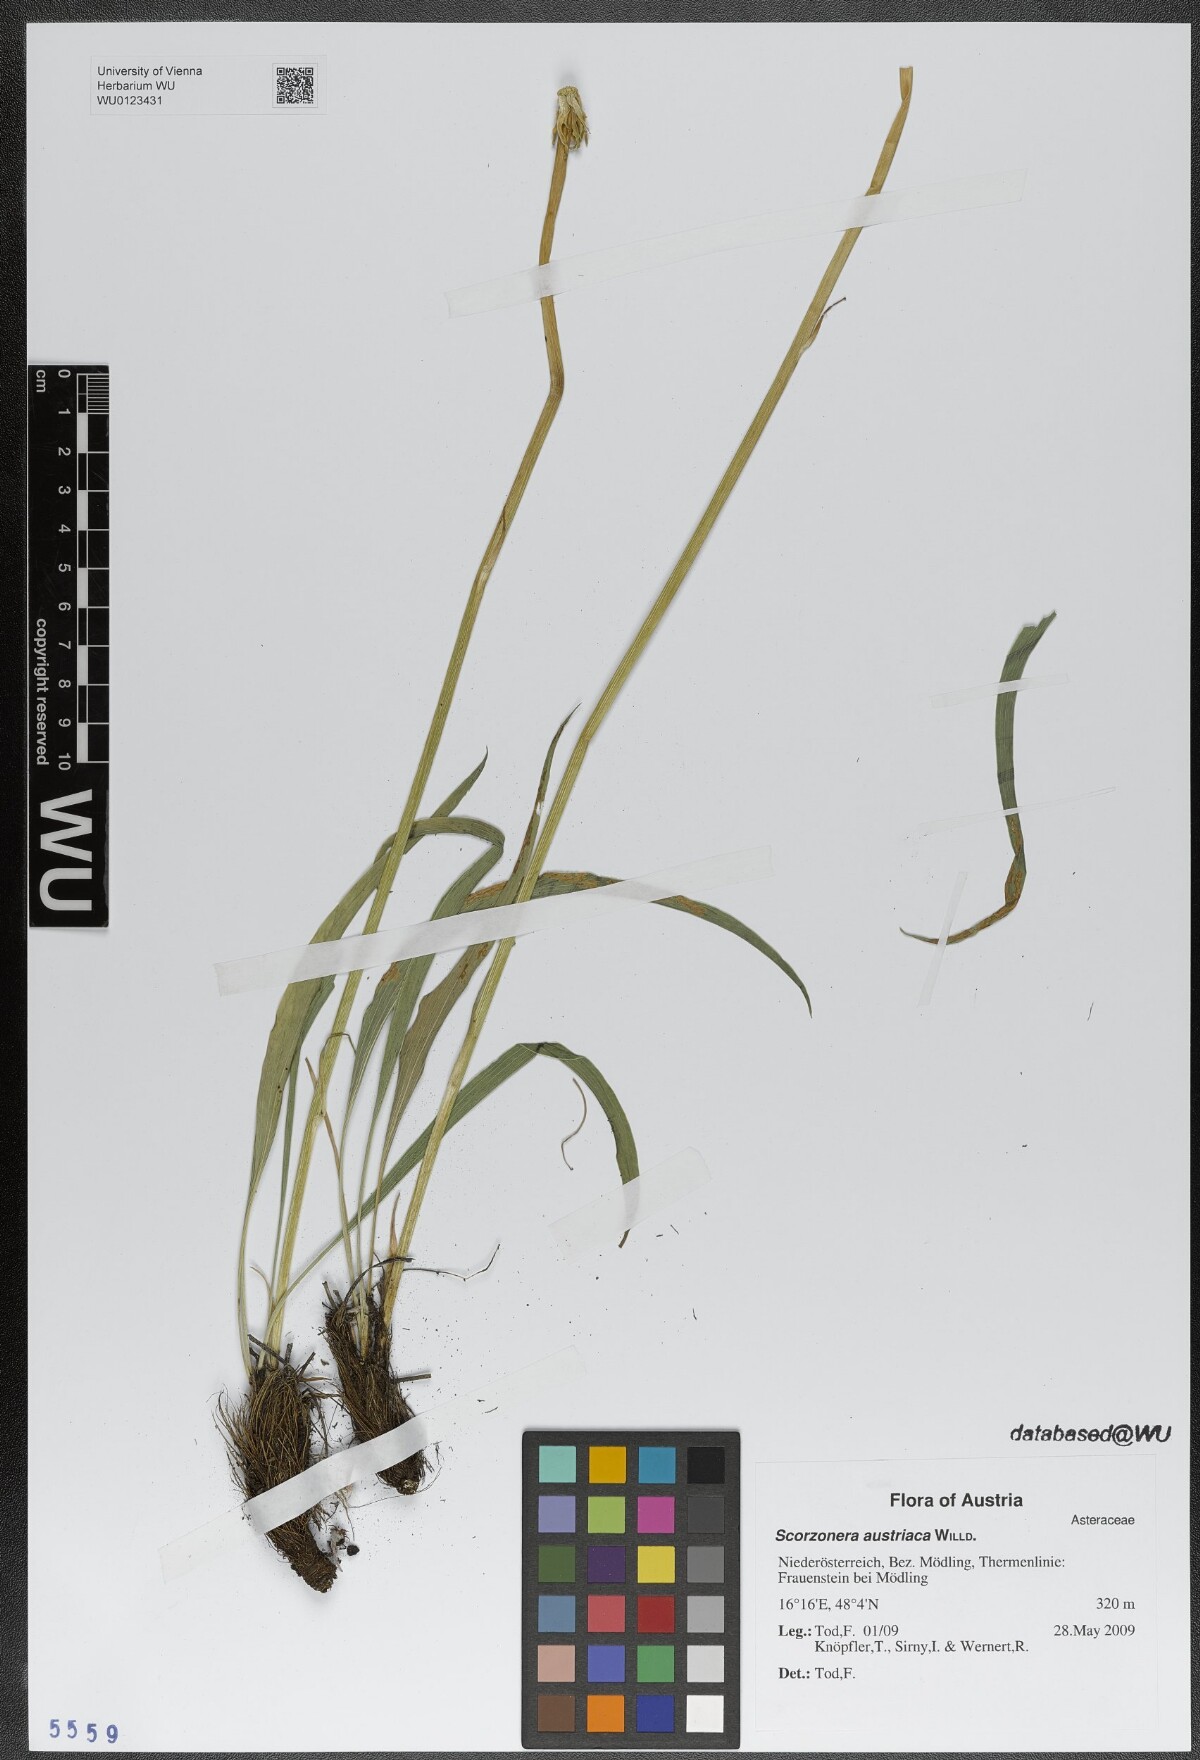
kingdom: Plantae
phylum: Tracheophyta
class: Magnoliopsida
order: Asterales
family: Asteraceae
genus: Takhtajaniantha
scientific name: Takhtajaniantha austriaca
